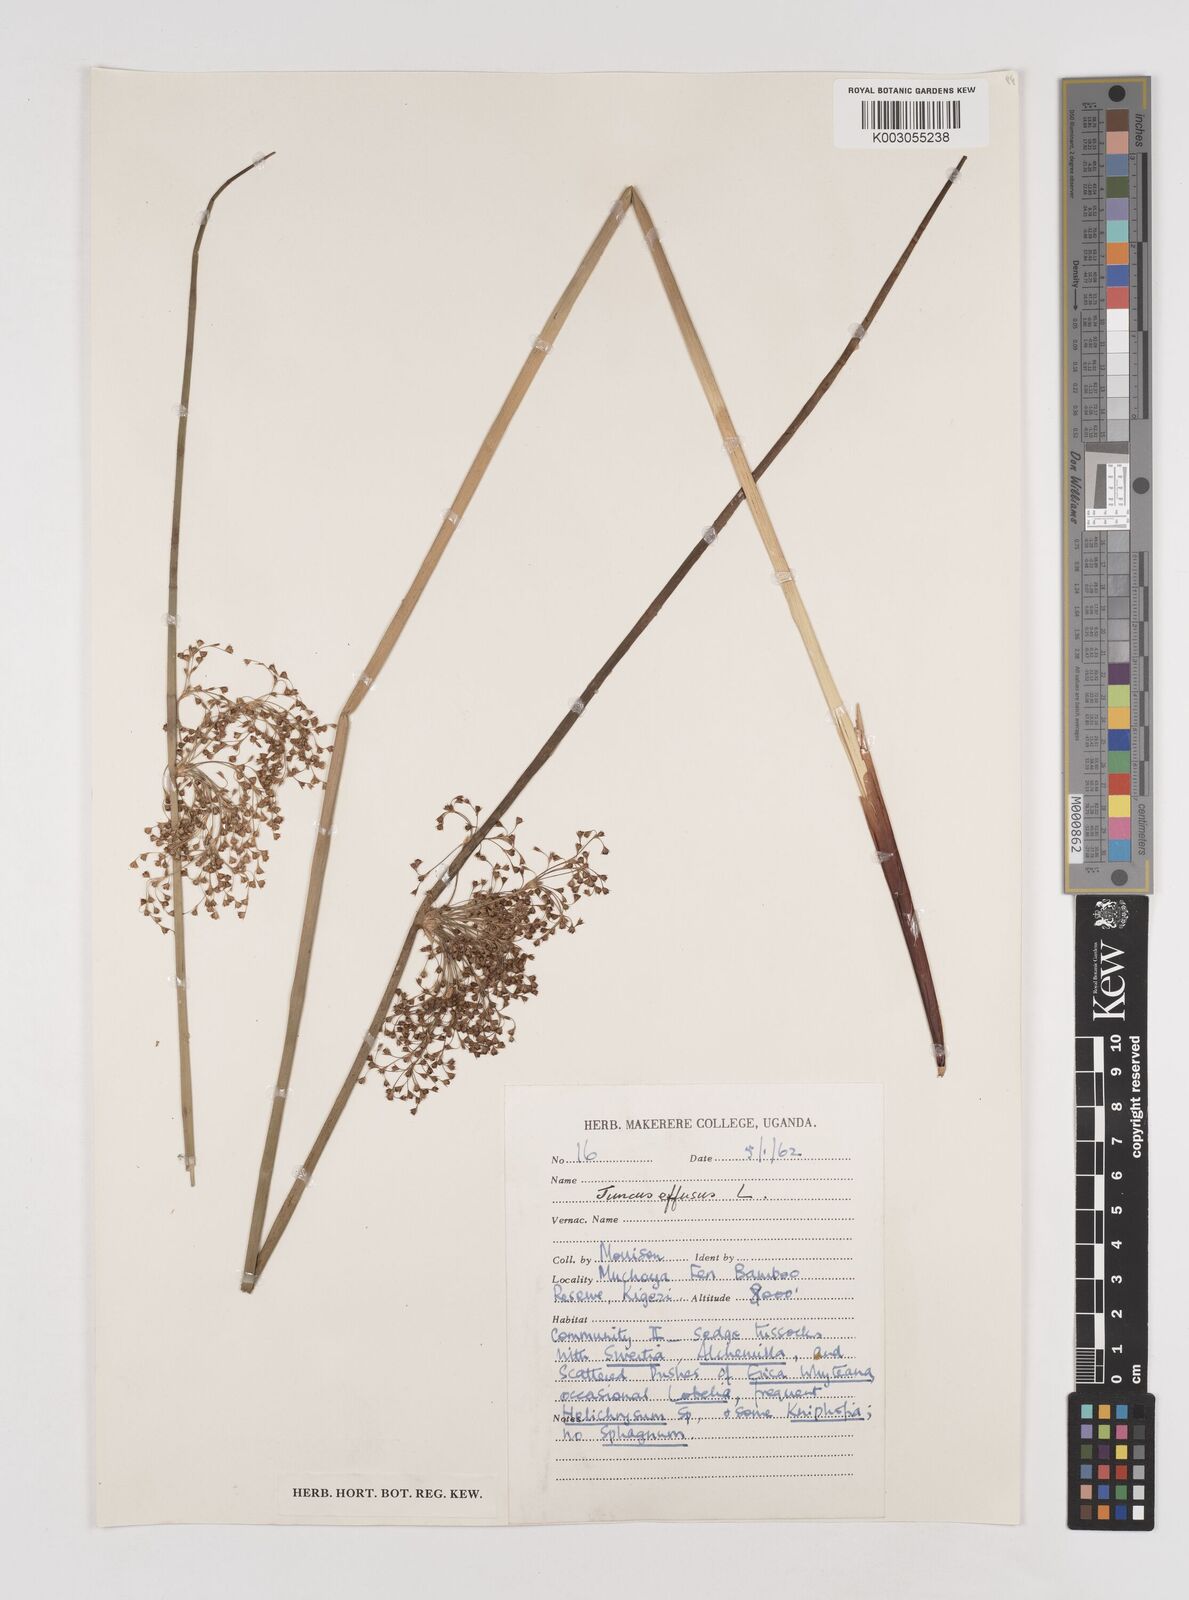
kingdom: Plantae
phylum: Tracheophyta
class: Liliopsida
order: Poales
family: Juncaceae
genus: Juncus
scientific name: Juncus effusus
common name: Soft rush
